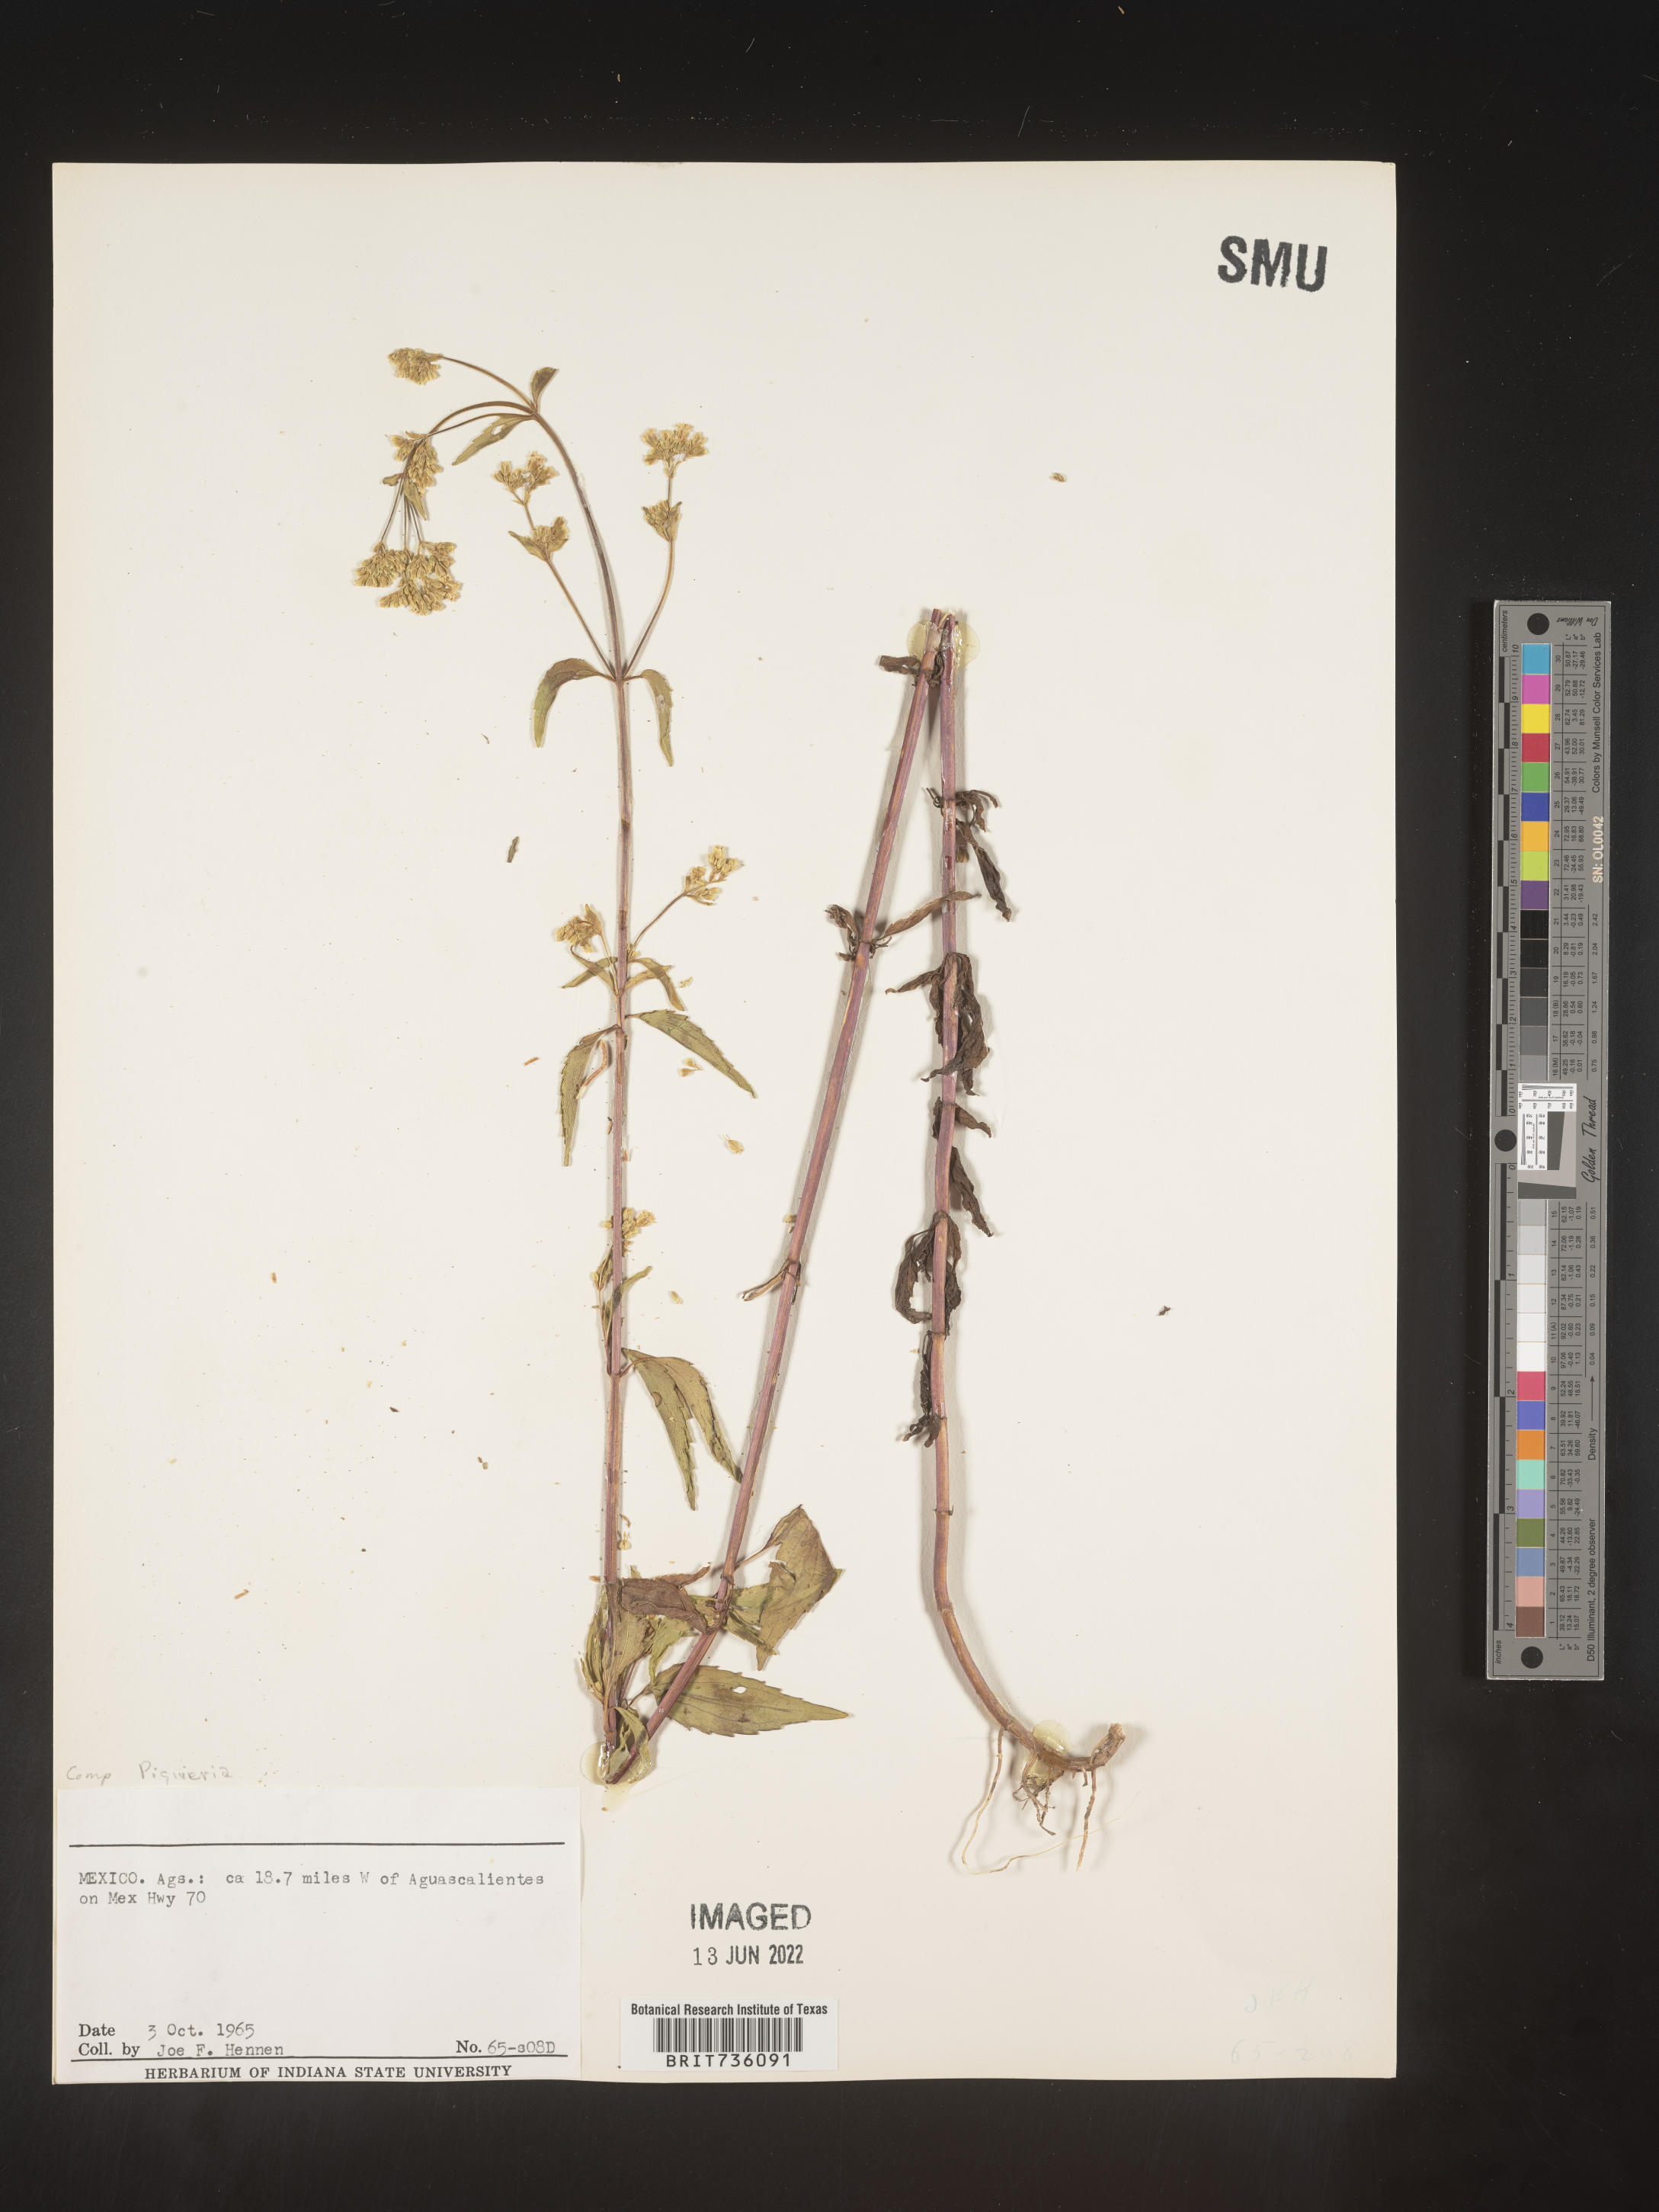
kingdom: Plantae
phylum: Tracheophyta
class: Magnoliopsida
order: Asterales
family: Asteraceae
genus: Piqueria
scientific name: Piqueria
